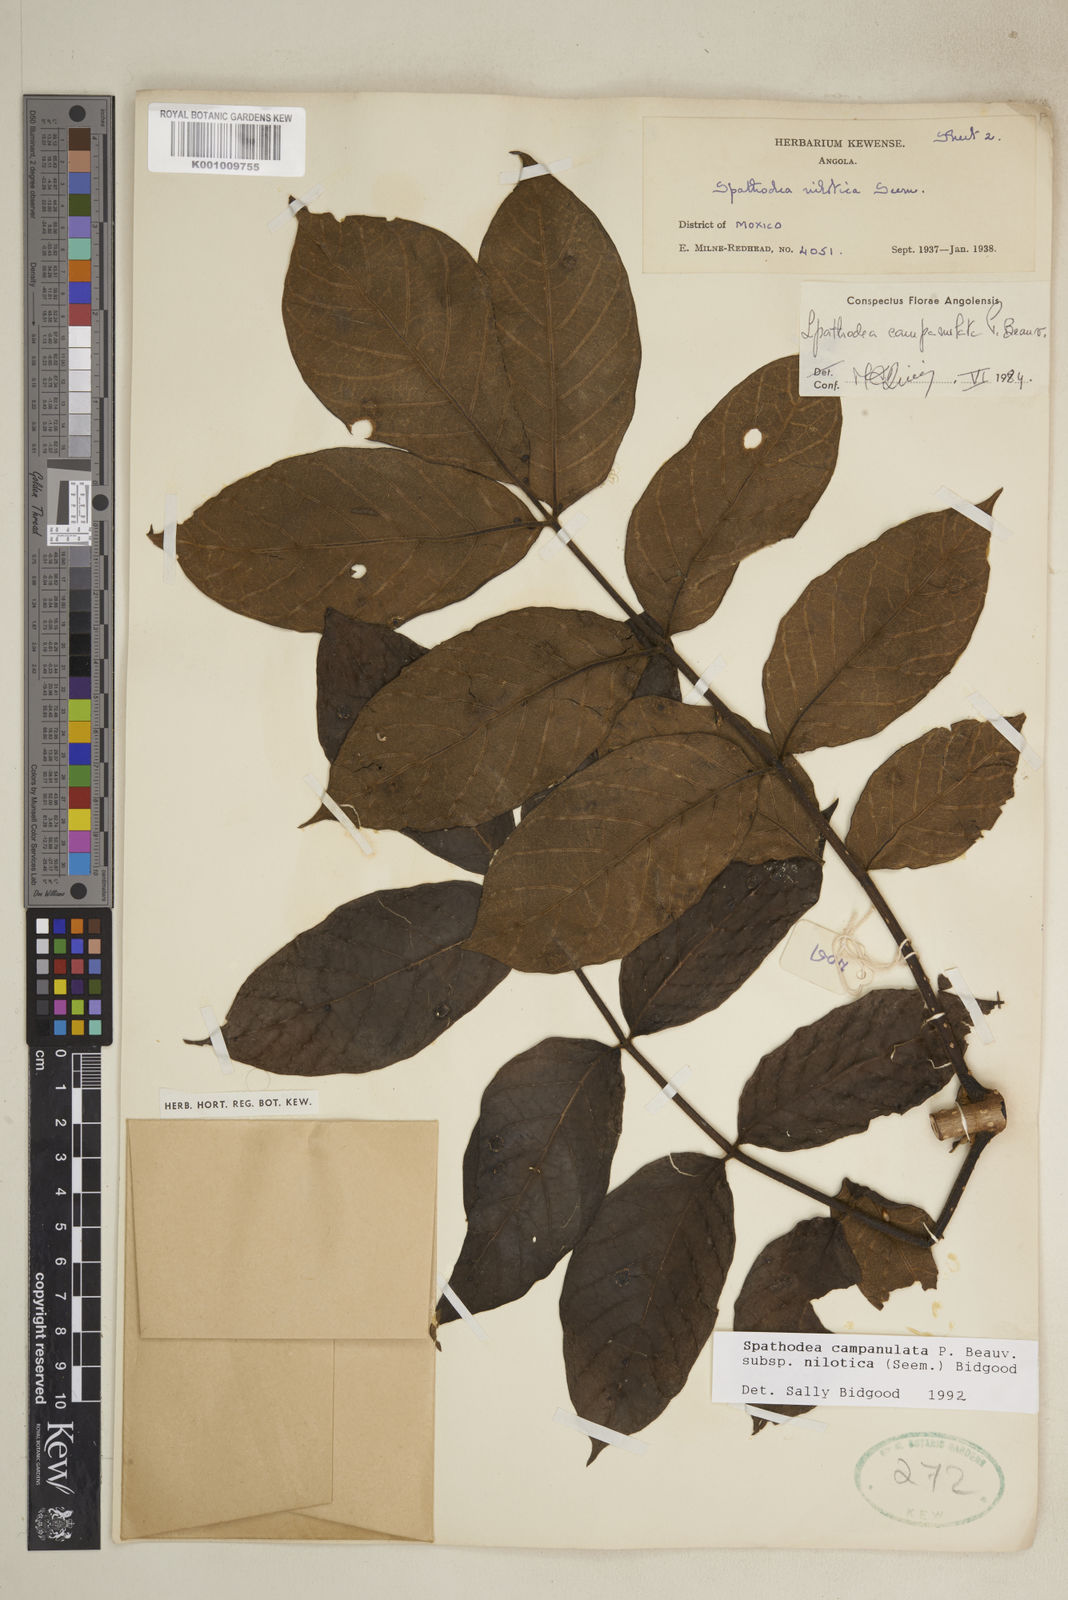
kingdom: Plantae
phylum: Tracheophyta
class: Magnoliopsida
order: Lamiales
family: Bignoniaceae
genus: Spathodea
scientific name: Spathodea campanulata
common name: African tuliptree
